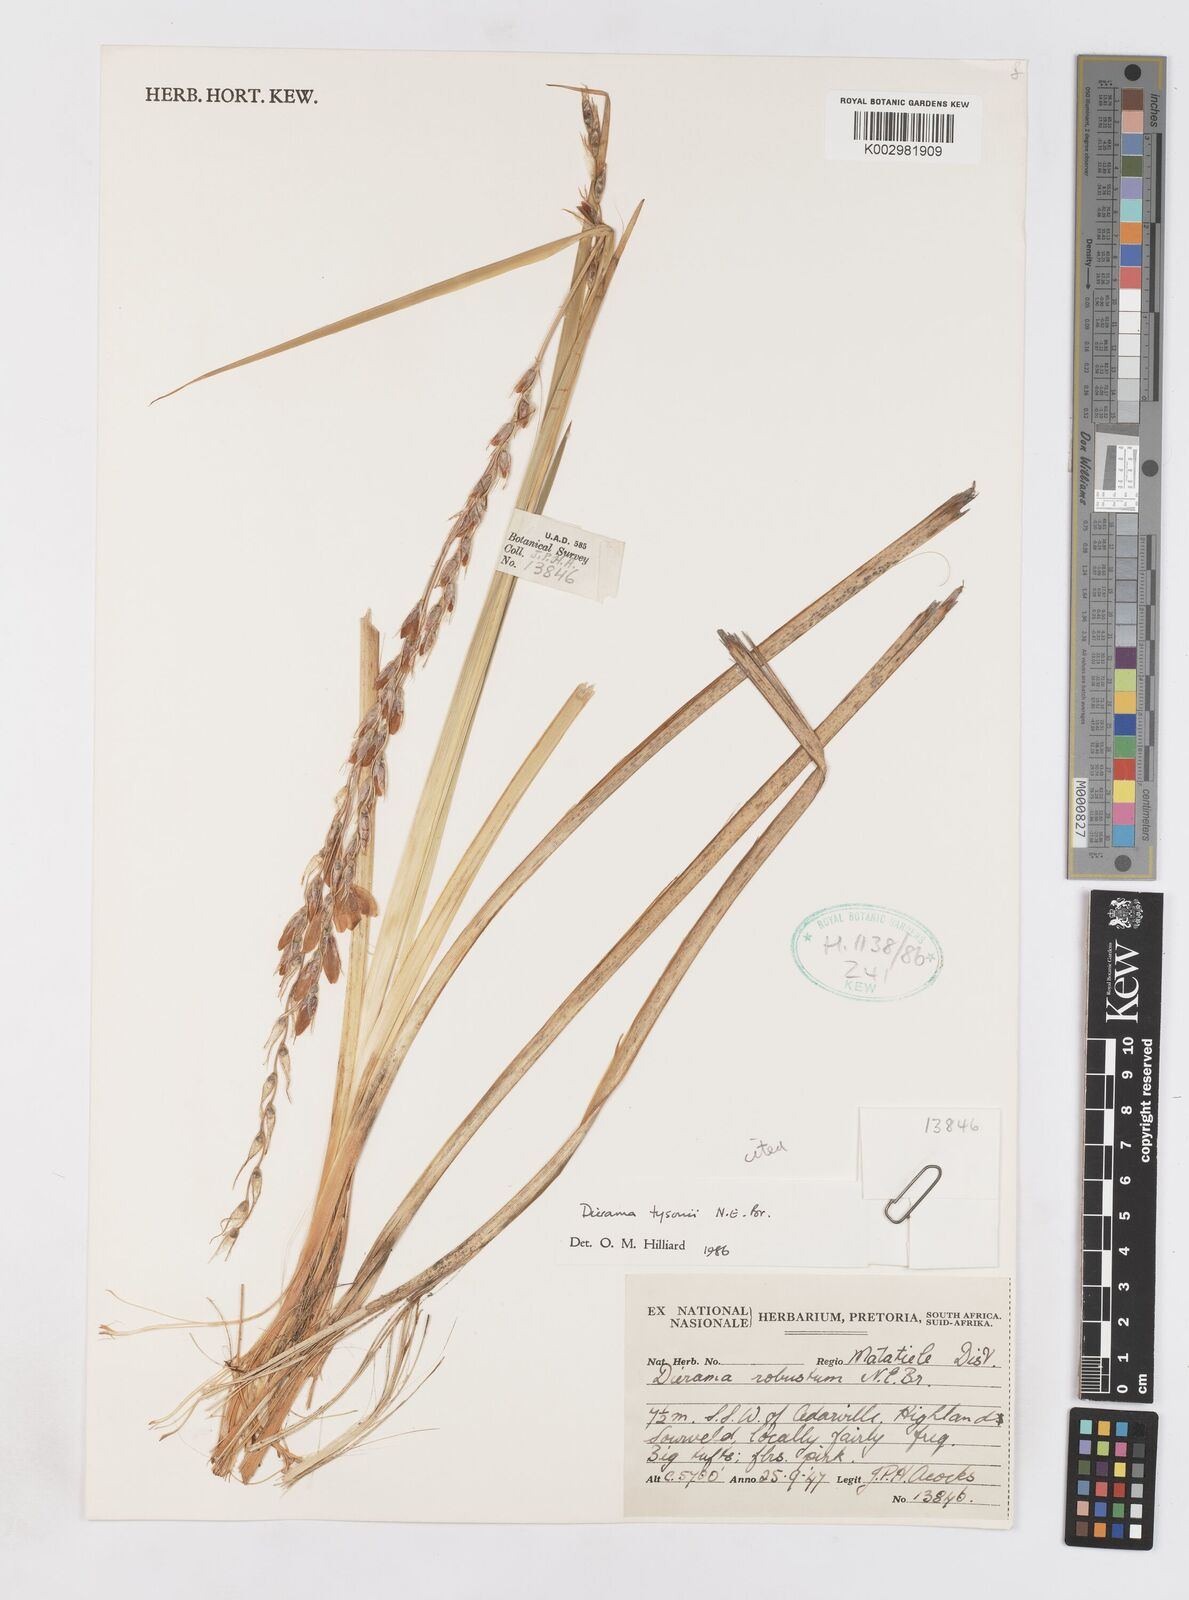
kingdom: Plantae
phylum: Tracheophyta
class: Liliopsida
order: Asparagales
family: Iridaceae
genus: Dierama
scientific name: Dierama tysonii
